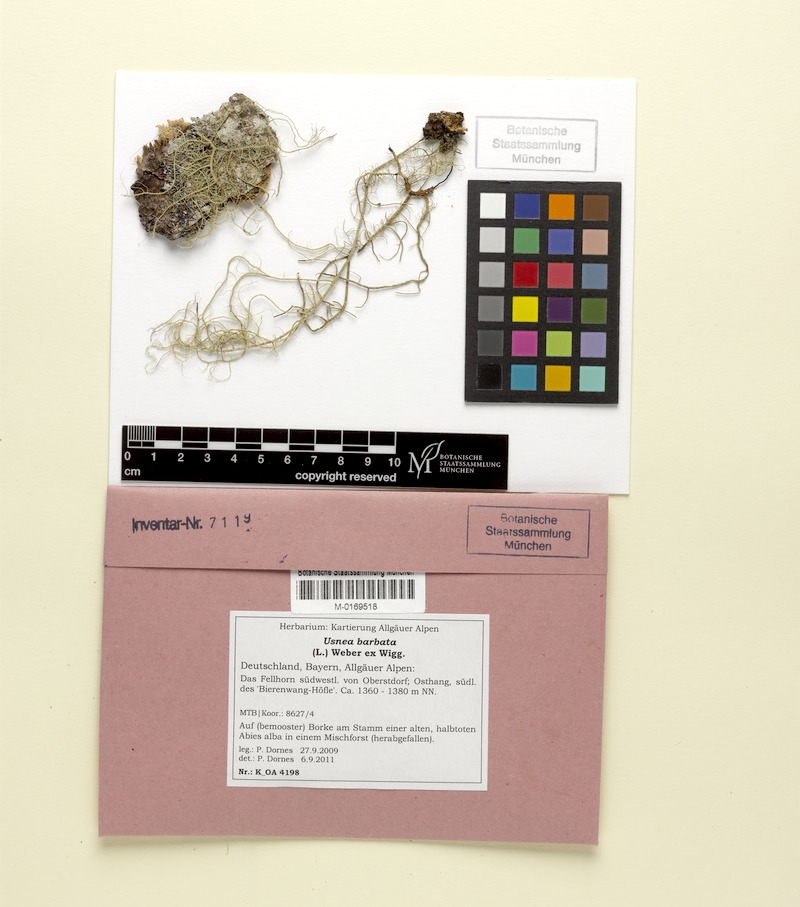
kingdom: Fungi
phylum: Ascomycota
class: Lecanoromycetes
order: Lecanorales
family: Parmeliaceae
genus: Usnea
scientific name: Usnea barbata
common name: Old man's beard lichen
